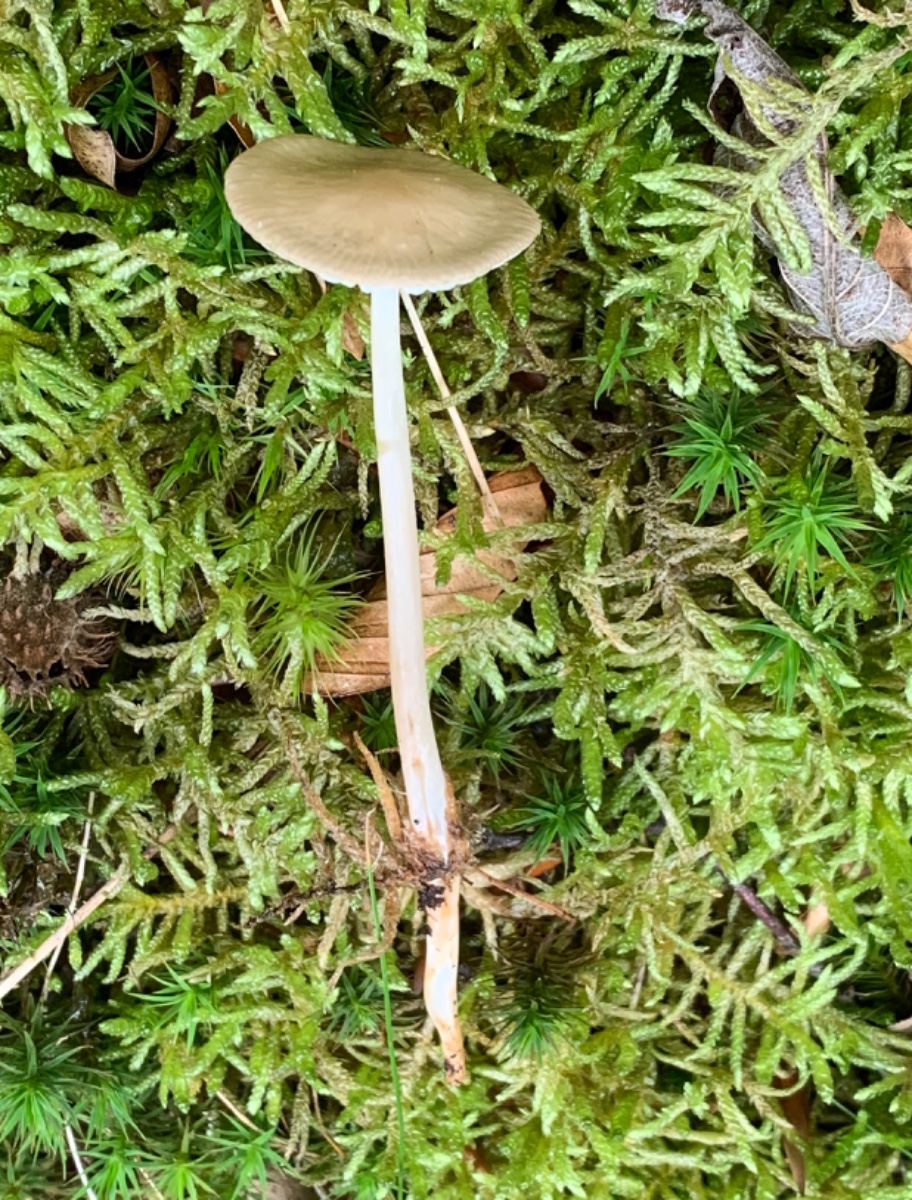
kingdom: Fungi
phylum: Basidiomycota
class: Agaricomycetes
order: Agaricales
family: Physalacriaceae
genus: Hymenopellis
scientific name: Hymenopellis radicata
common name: almindelig pælerodshat
